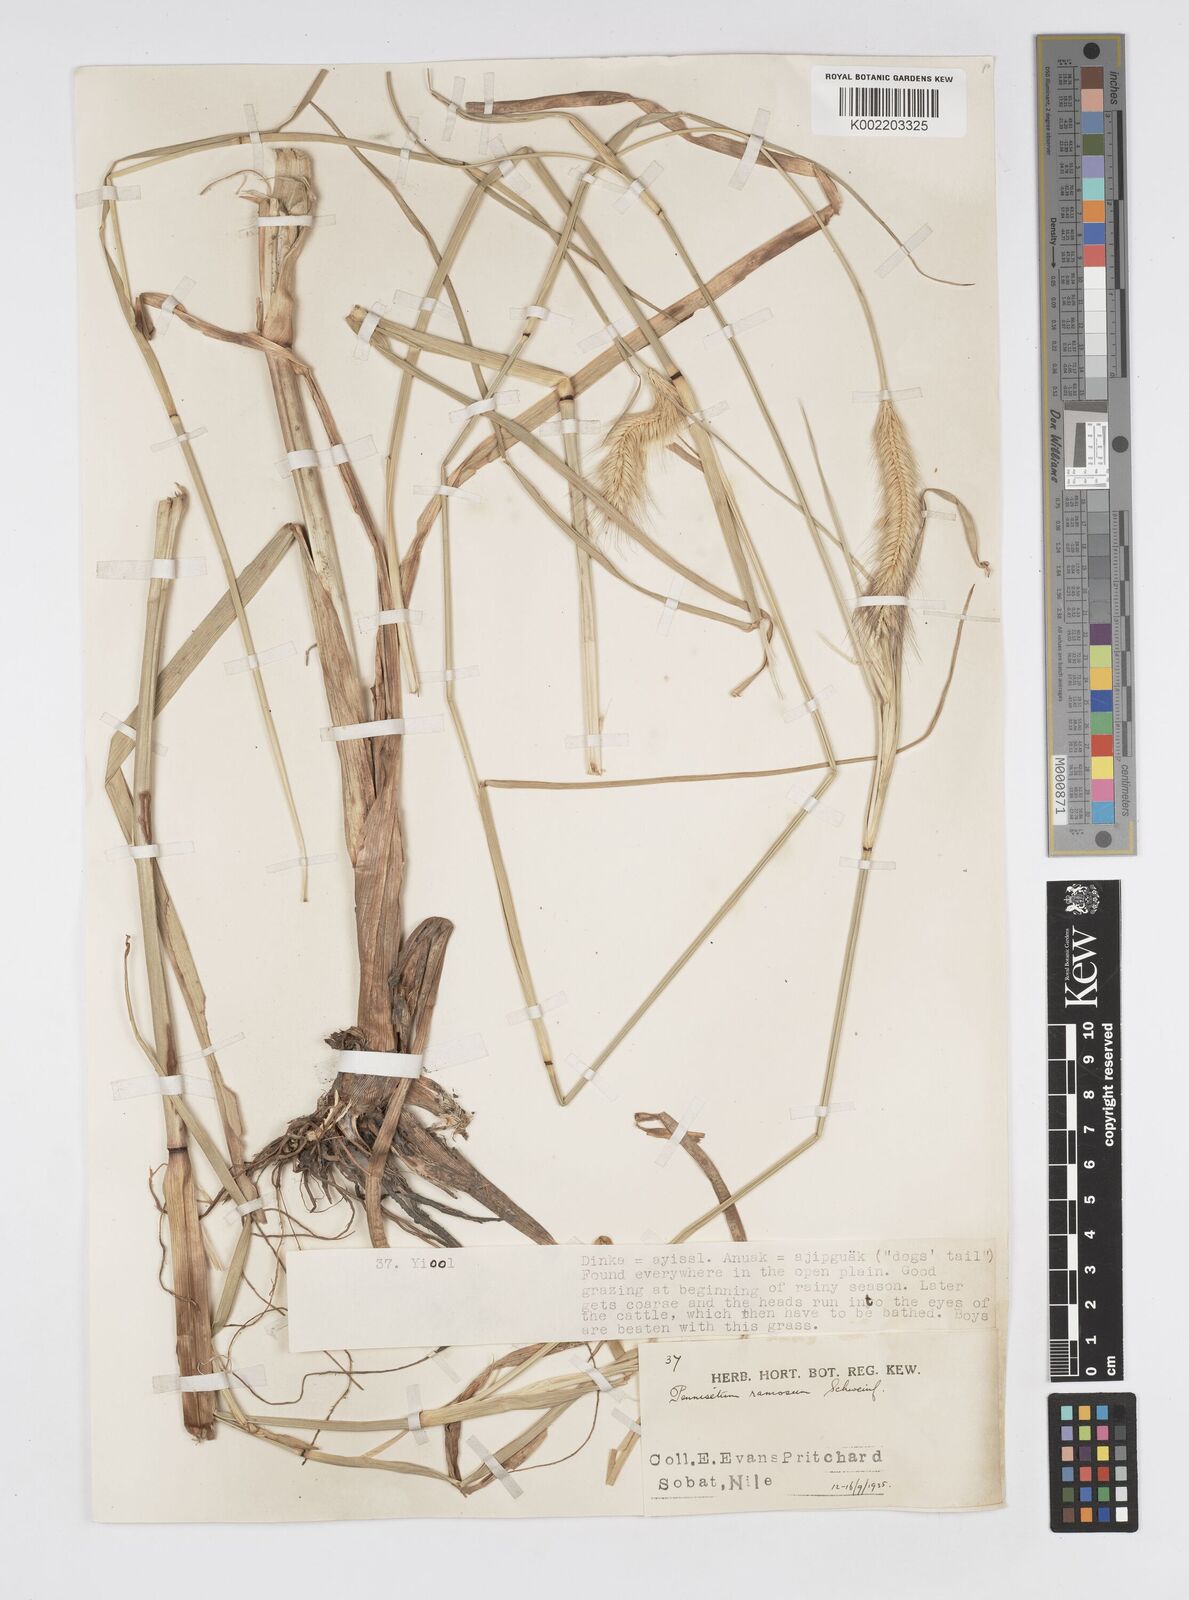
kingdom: Plantae
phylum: Tracheophyta
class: Liliopsida
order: Poales
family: Poaceae
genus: Cenchrus
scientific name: Cenchrus ramosus
